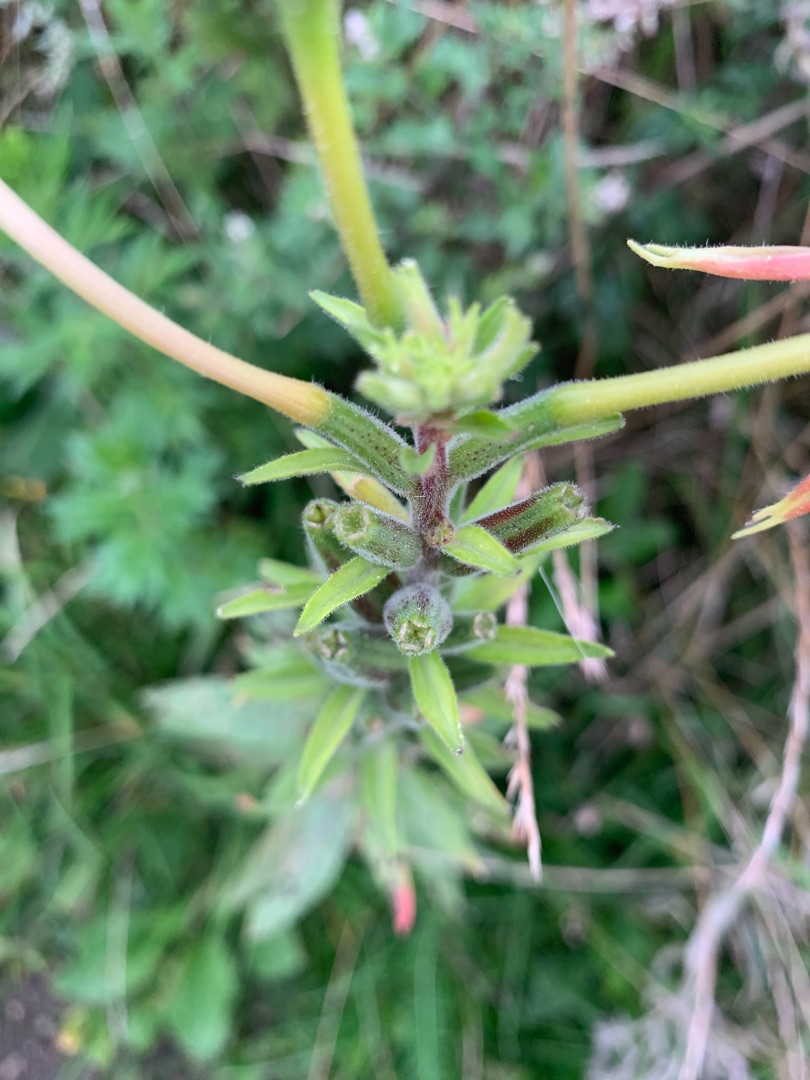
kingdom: Plantae
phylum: Tracheophyta
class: Magnoliopsida
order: Myrtales
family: Onagraceae
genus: Oenothera
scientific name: Oenothera glazioviana
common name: Kæmpe-natlys
